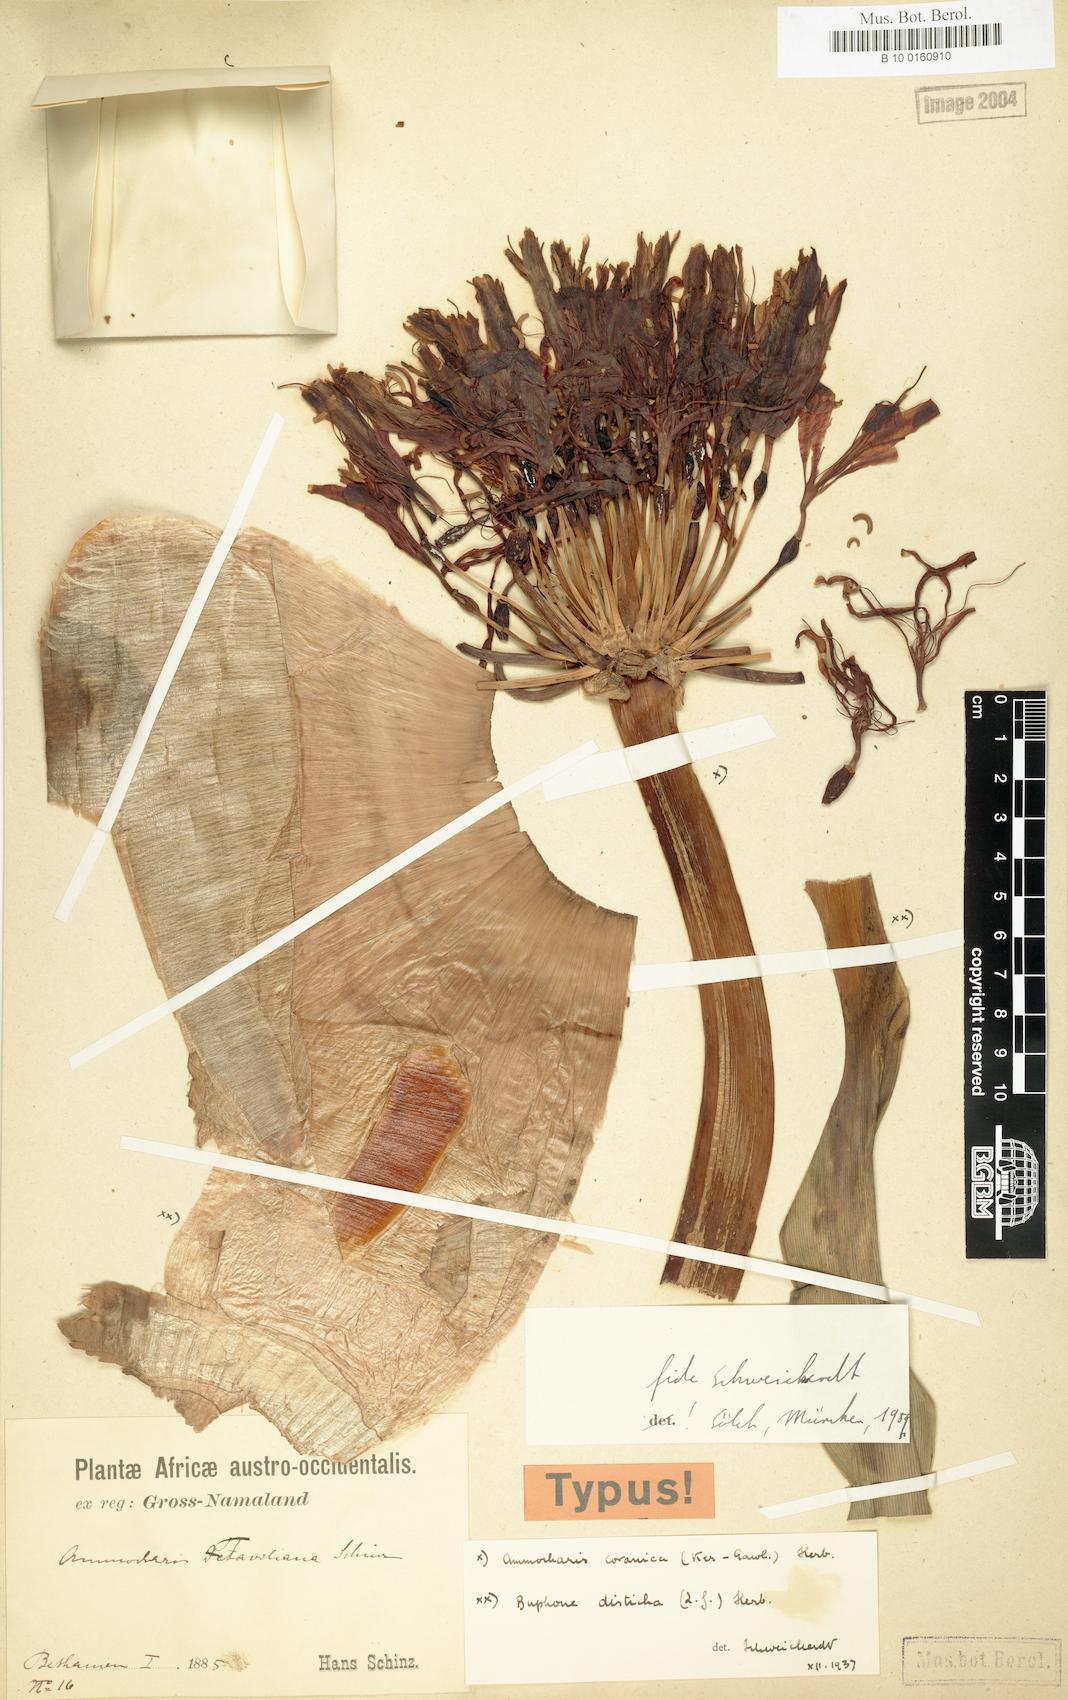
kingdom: Plantae
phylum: Tracheophyta
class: Liliopsida
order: Asparagales
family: Amaryllidaceae
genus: Ammocharis
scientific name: Ammocharis coranica
